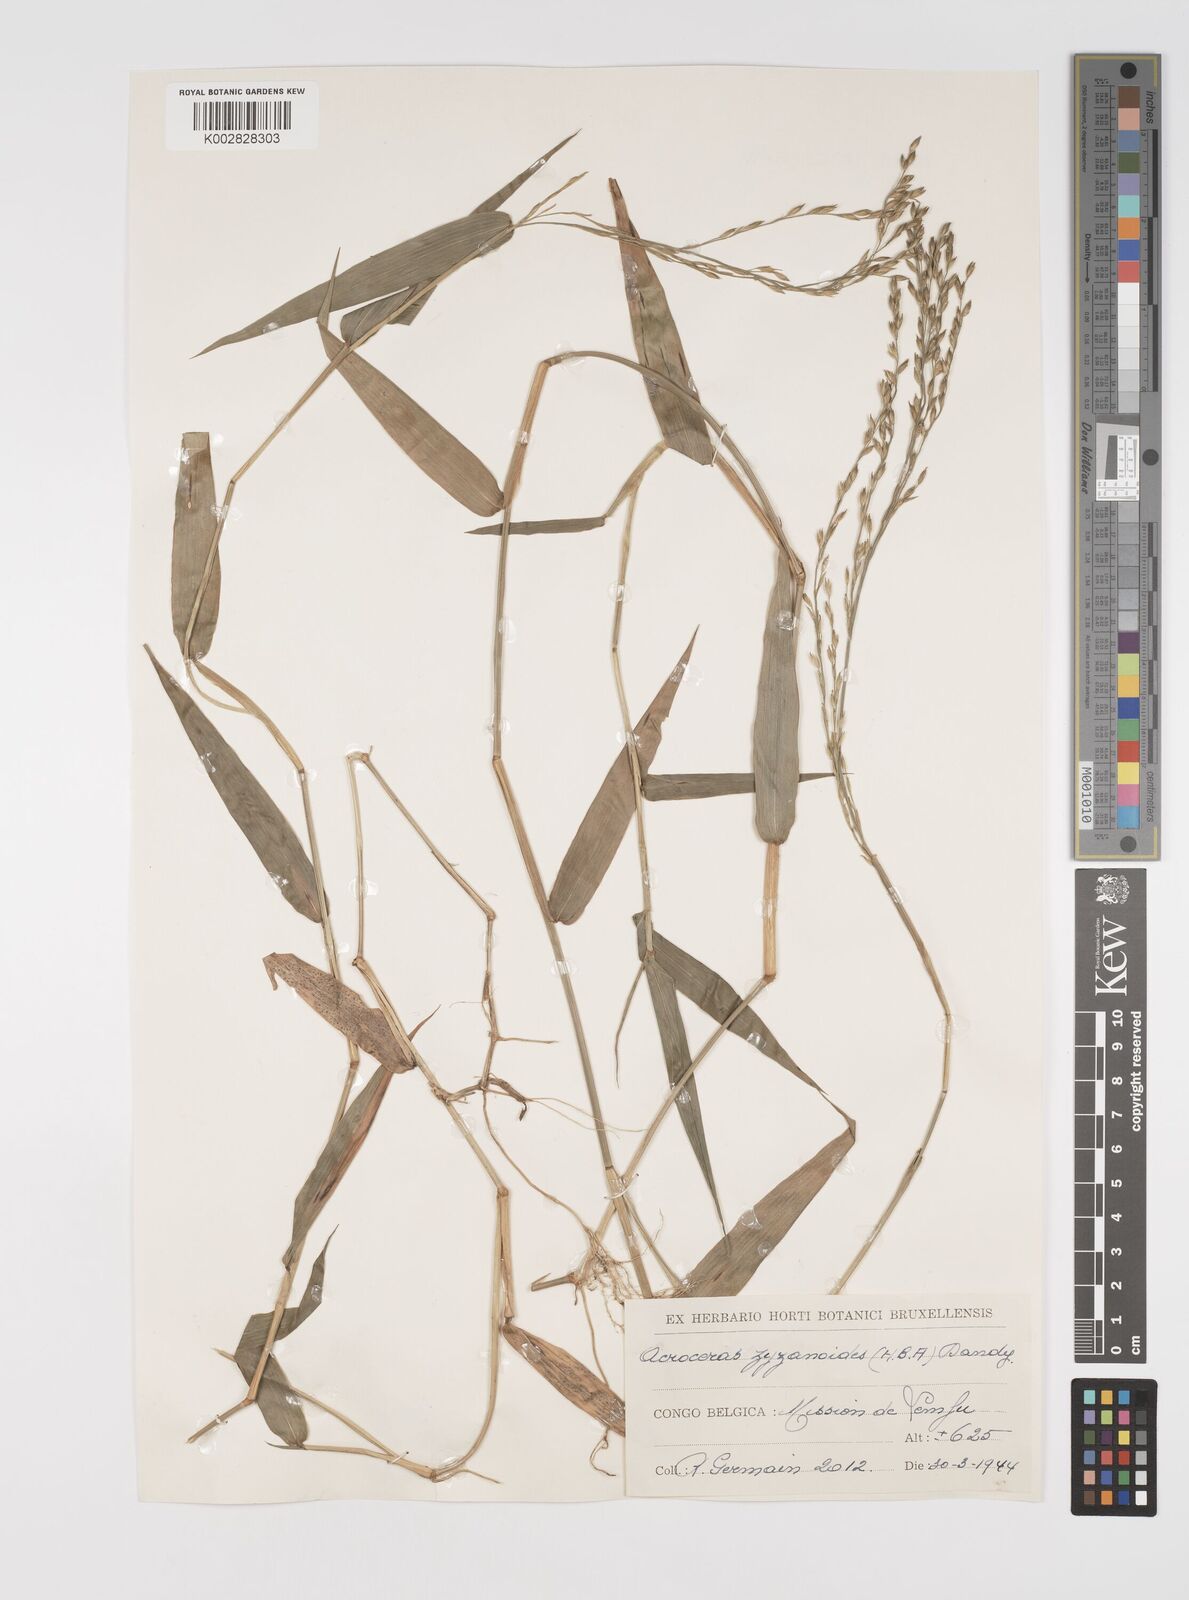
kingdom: Plantae
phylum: Tracheophyta
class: Liliopsida
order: Poales
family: Poaceae
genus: Acroceras
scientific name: Acroceras zizanioides
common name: Oat grass
